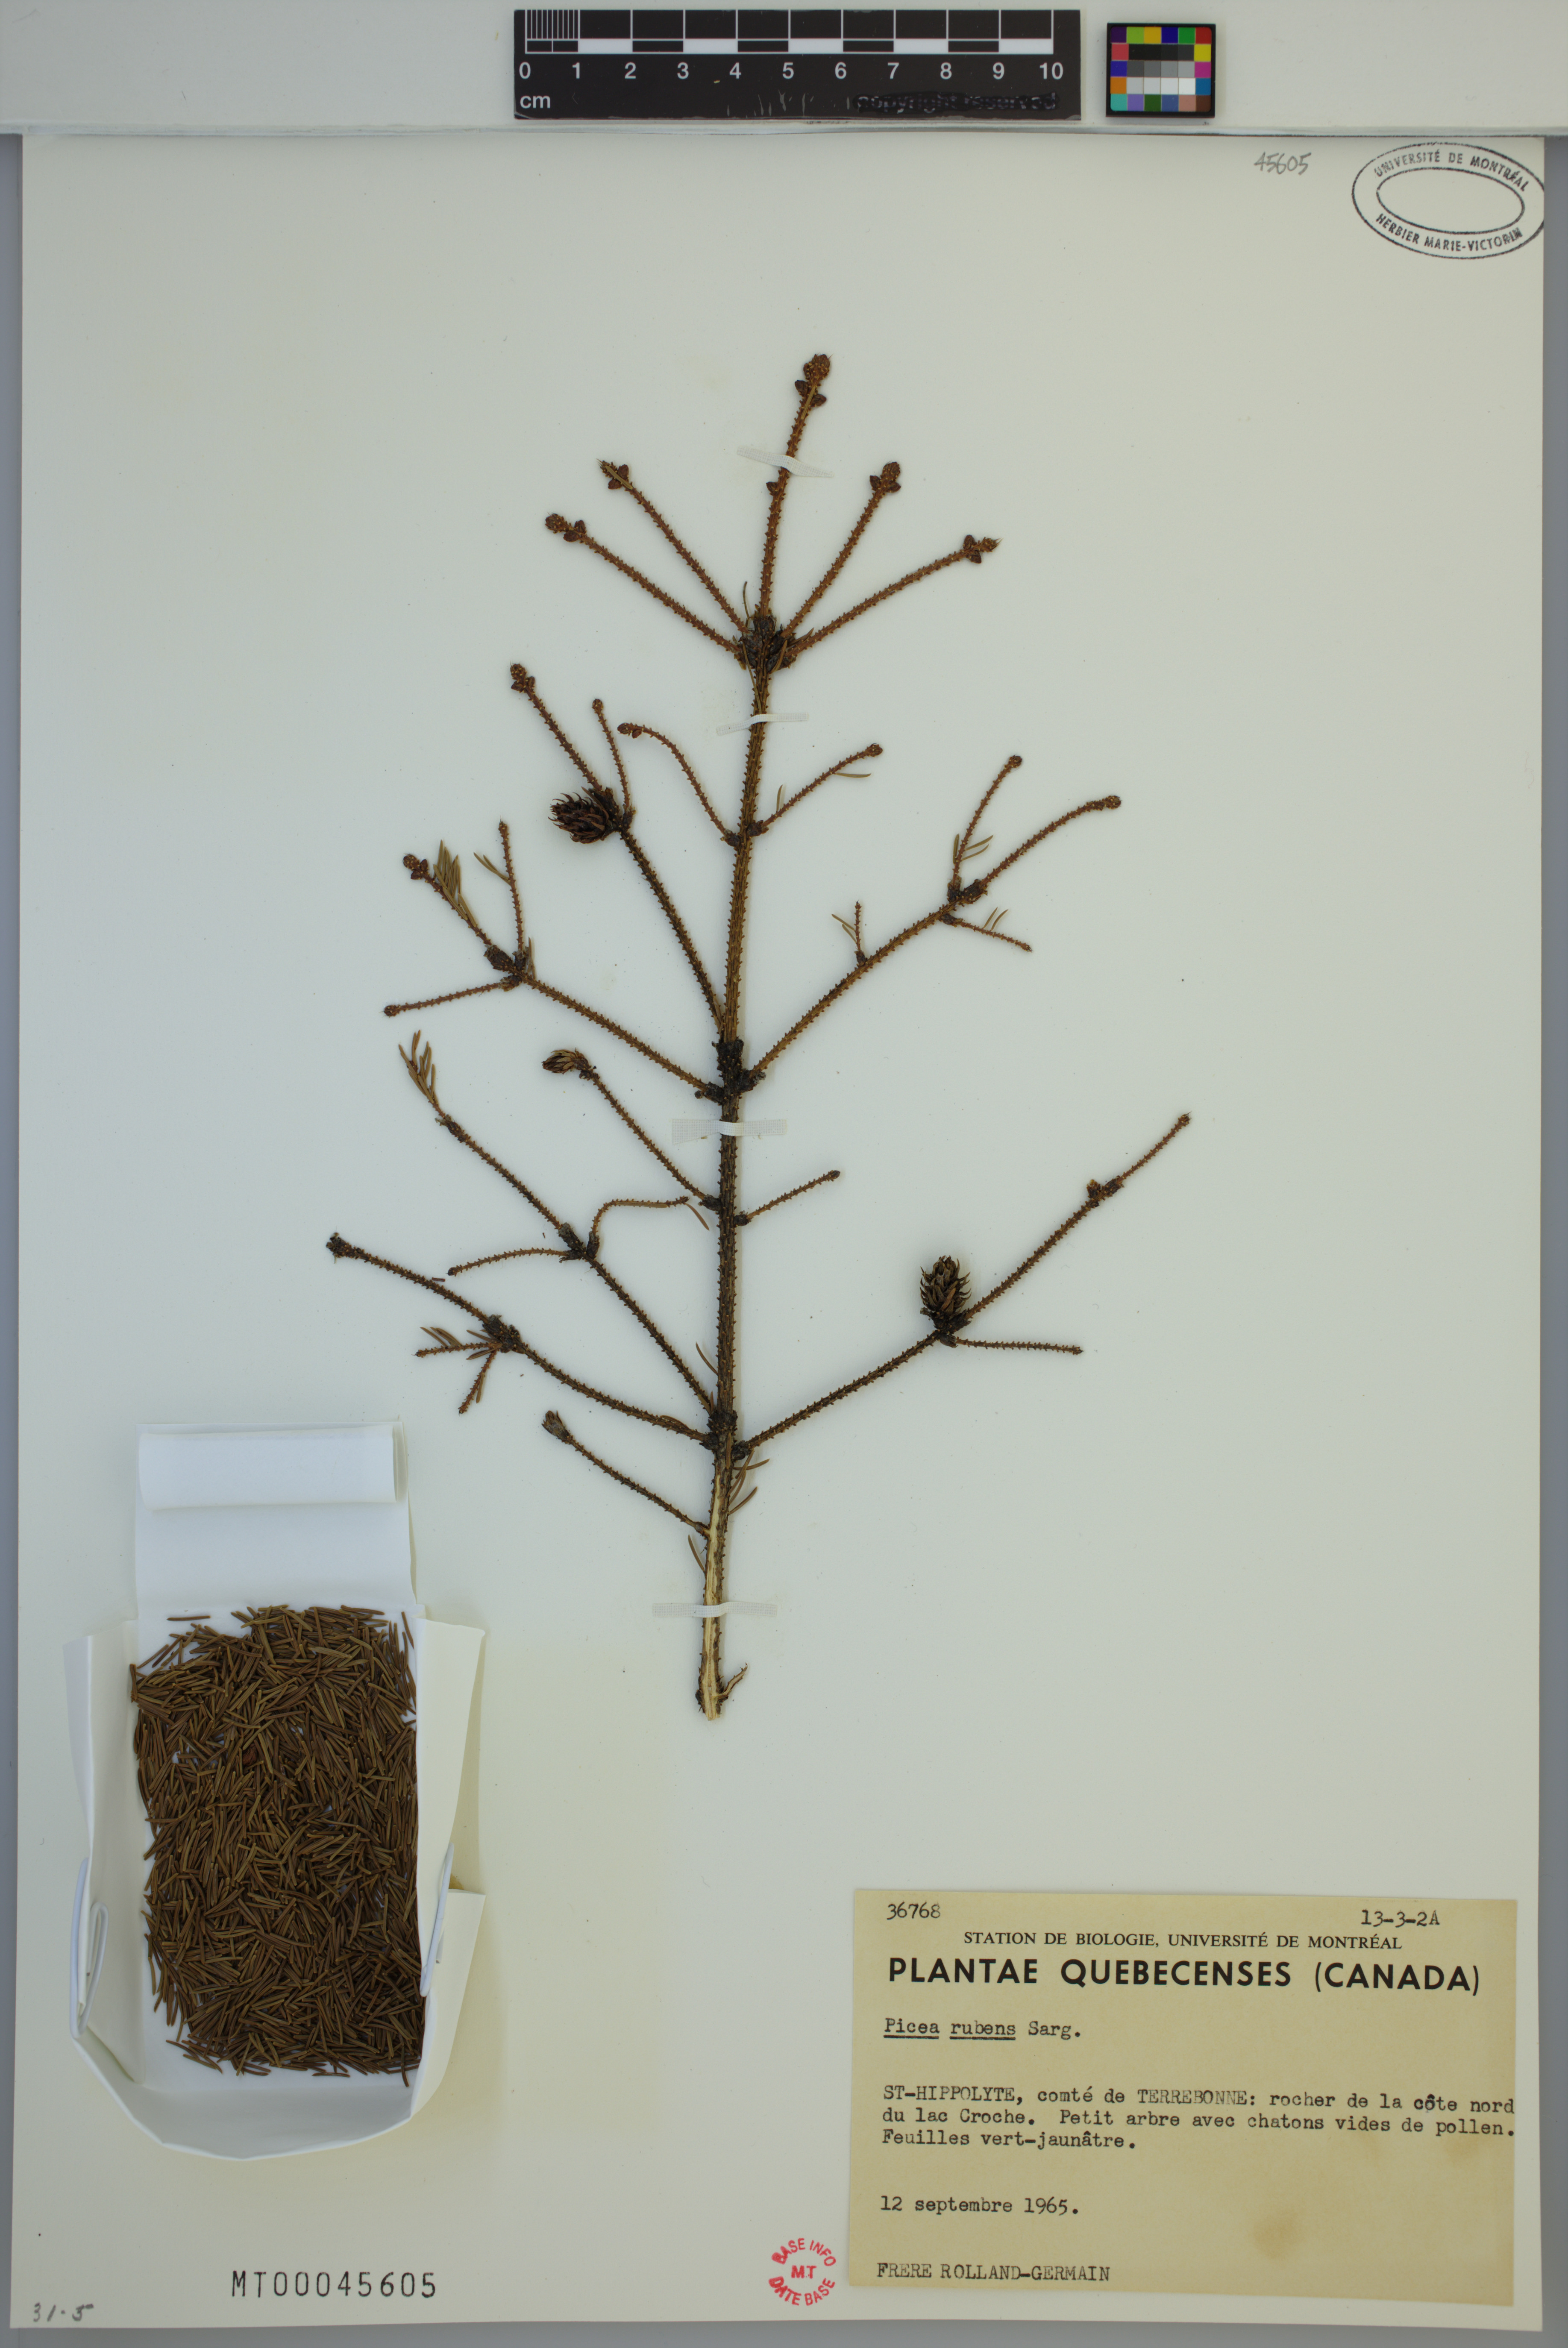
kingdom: Plantae
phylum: Tracheophyta
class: Pinopsida
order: Pinales
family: Pinaceae
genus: Picea
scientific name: Picea rubens
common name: Red spruce
